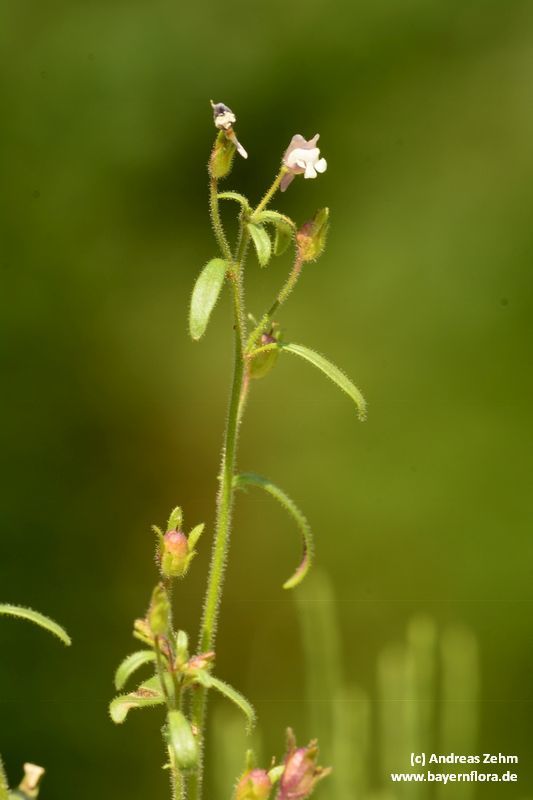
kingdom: Plantae
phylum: Tracheophyta
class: Magnoliopsida
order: Lamiales
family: Plantaginaceae
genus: Chaenorhinum
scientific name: Chaenorhinum minus
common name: Dwarf snapdragon
